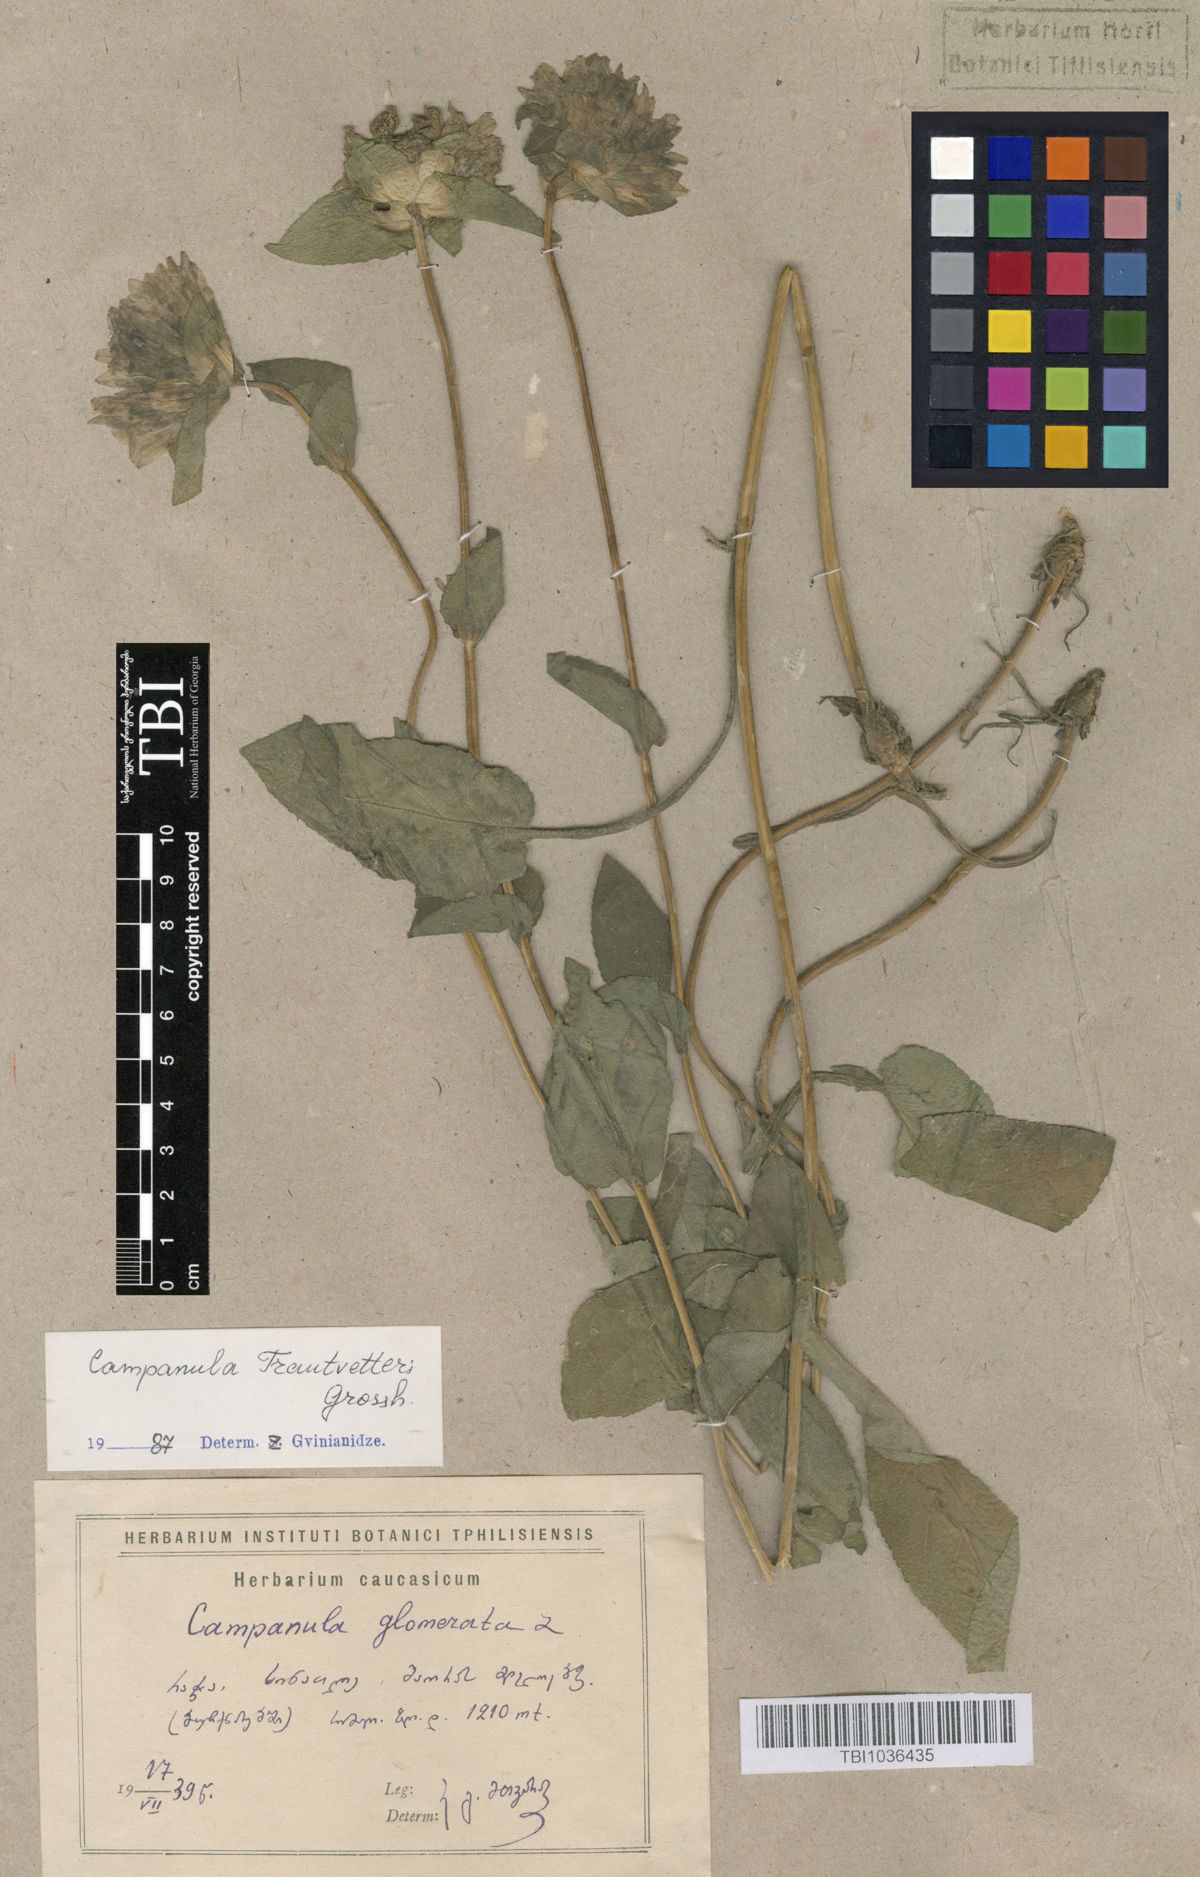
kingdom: Plantae
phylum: Tracheophyta
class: Magnoliopsida
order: Asterales
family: Campanulaceae
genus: Campanula
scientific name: Campanula glomerata
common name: Clustered bellflower
